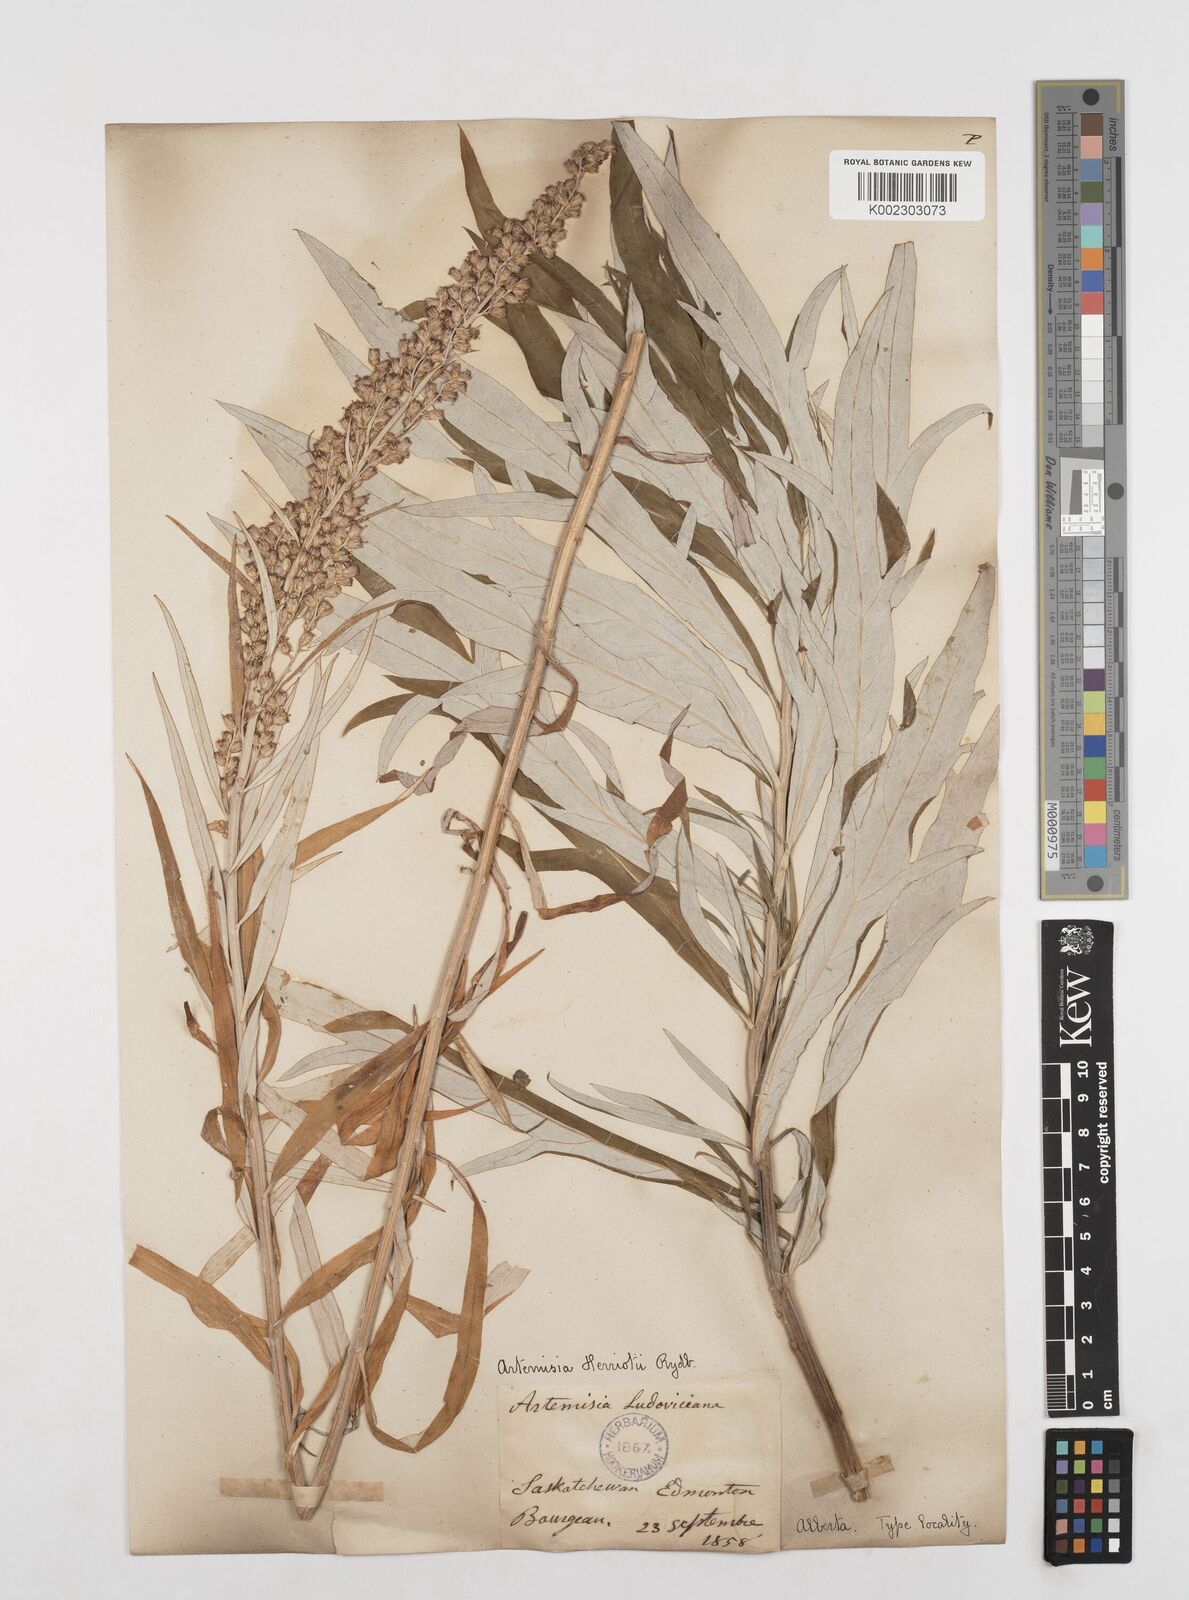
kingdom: Plantae
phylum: Tracheophyta
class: Magnoliopsida
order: Asterales
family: Asteraceae
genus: Artemisia
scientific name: Artemisia tilesii
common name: Aleutian mugwort
